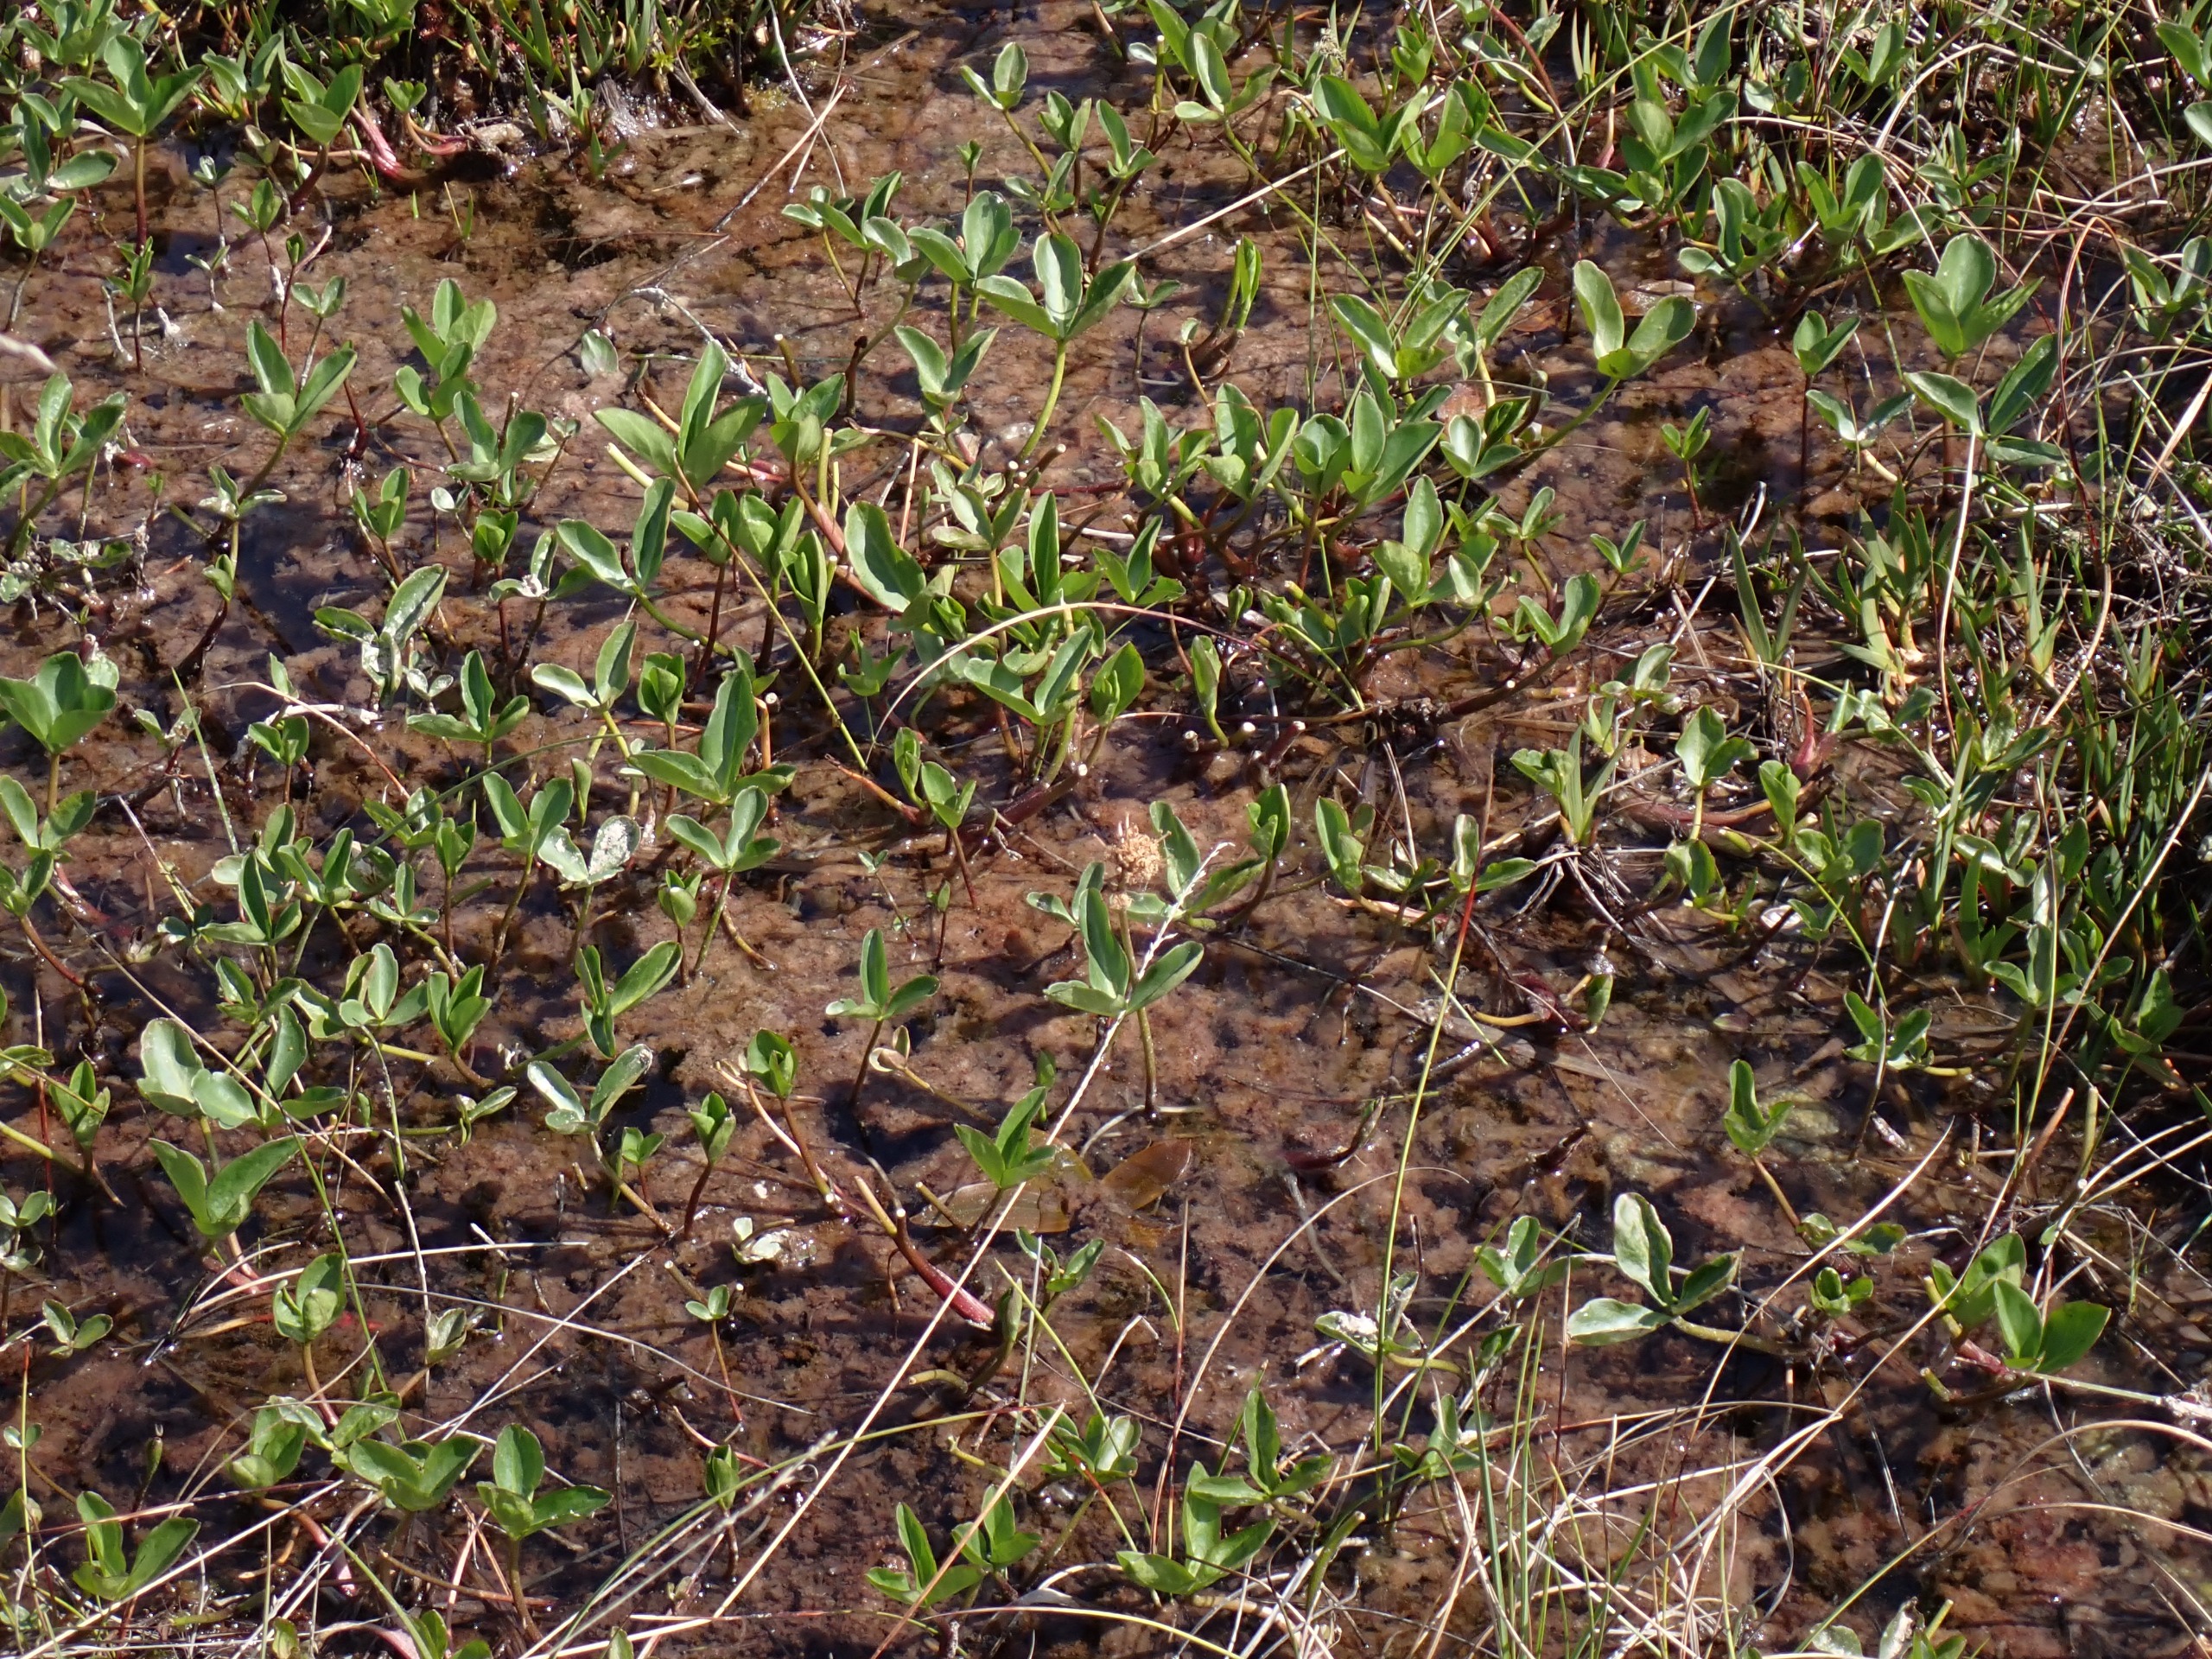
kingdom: Plantae
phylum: Tracheophyta
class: Magnoliopsida
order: Asterales
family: Menyanthaceae
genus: Menyanthes
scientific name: Menyanthes trifoliata
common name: Bukkeblad
